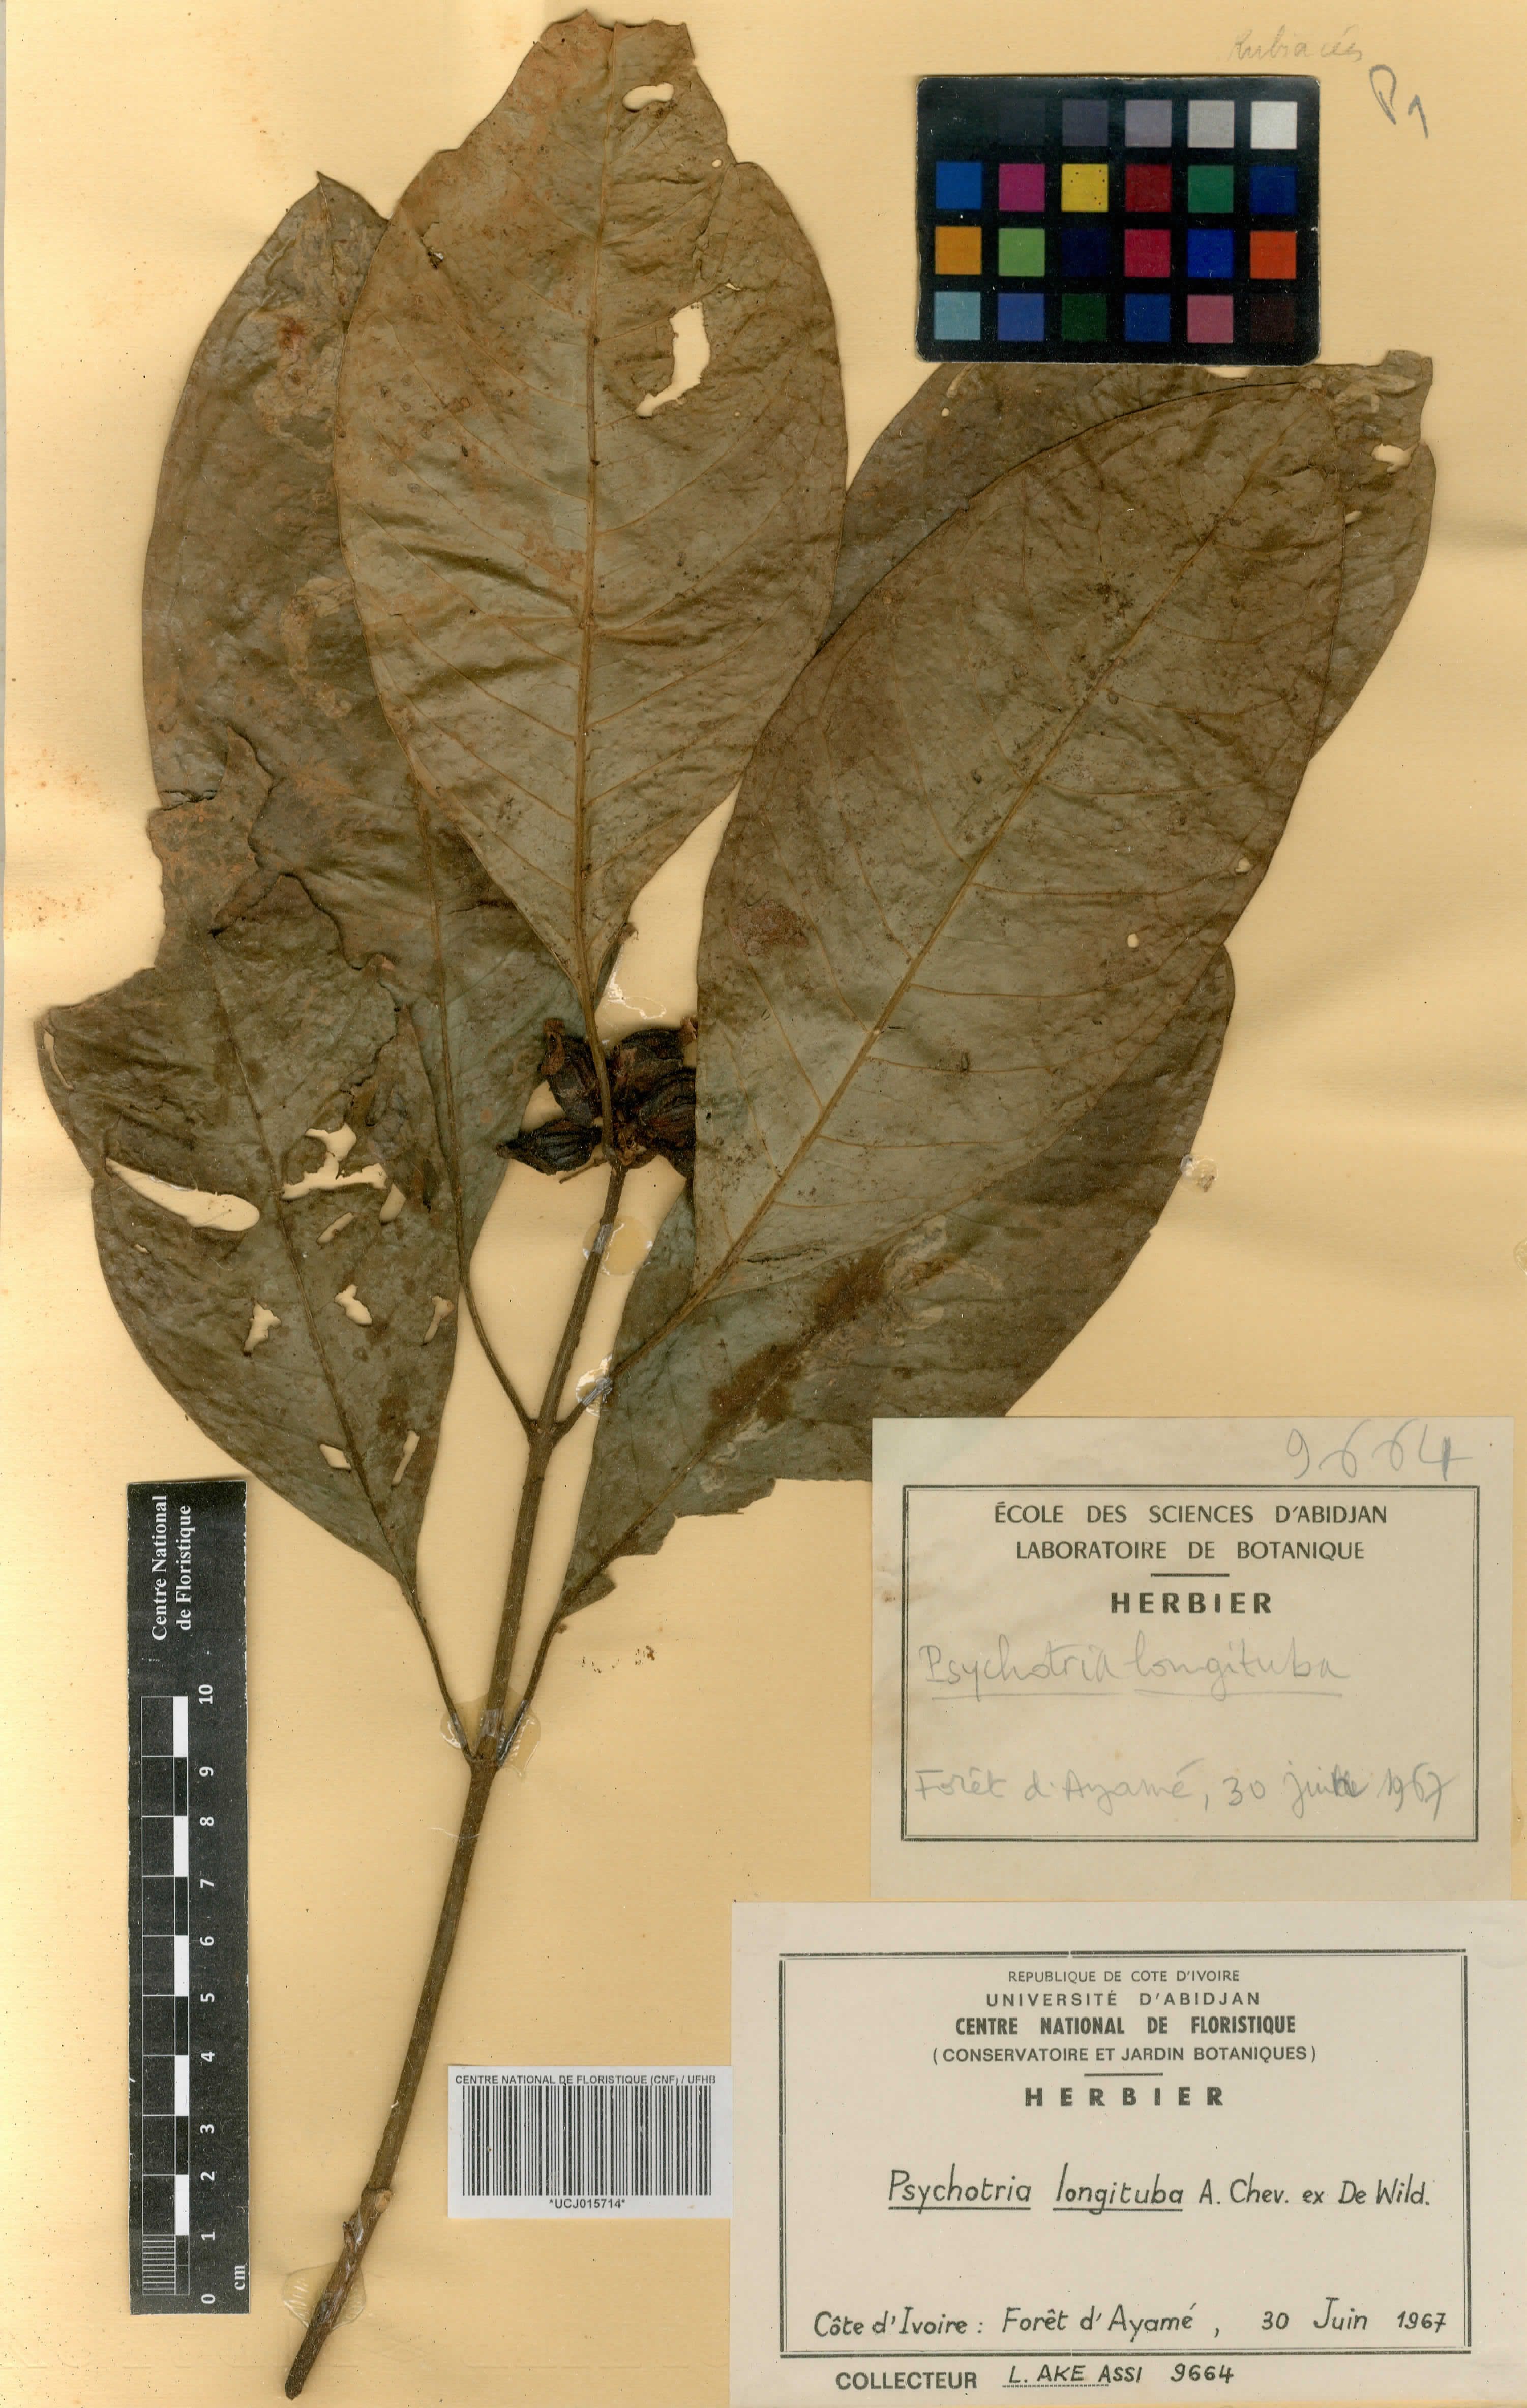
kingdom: Plantae
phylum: Tracheophyta
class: Magnoliopsida
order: Gentianales
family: Rubiaceae
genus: Psychotria
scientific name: Psychotria longituba
